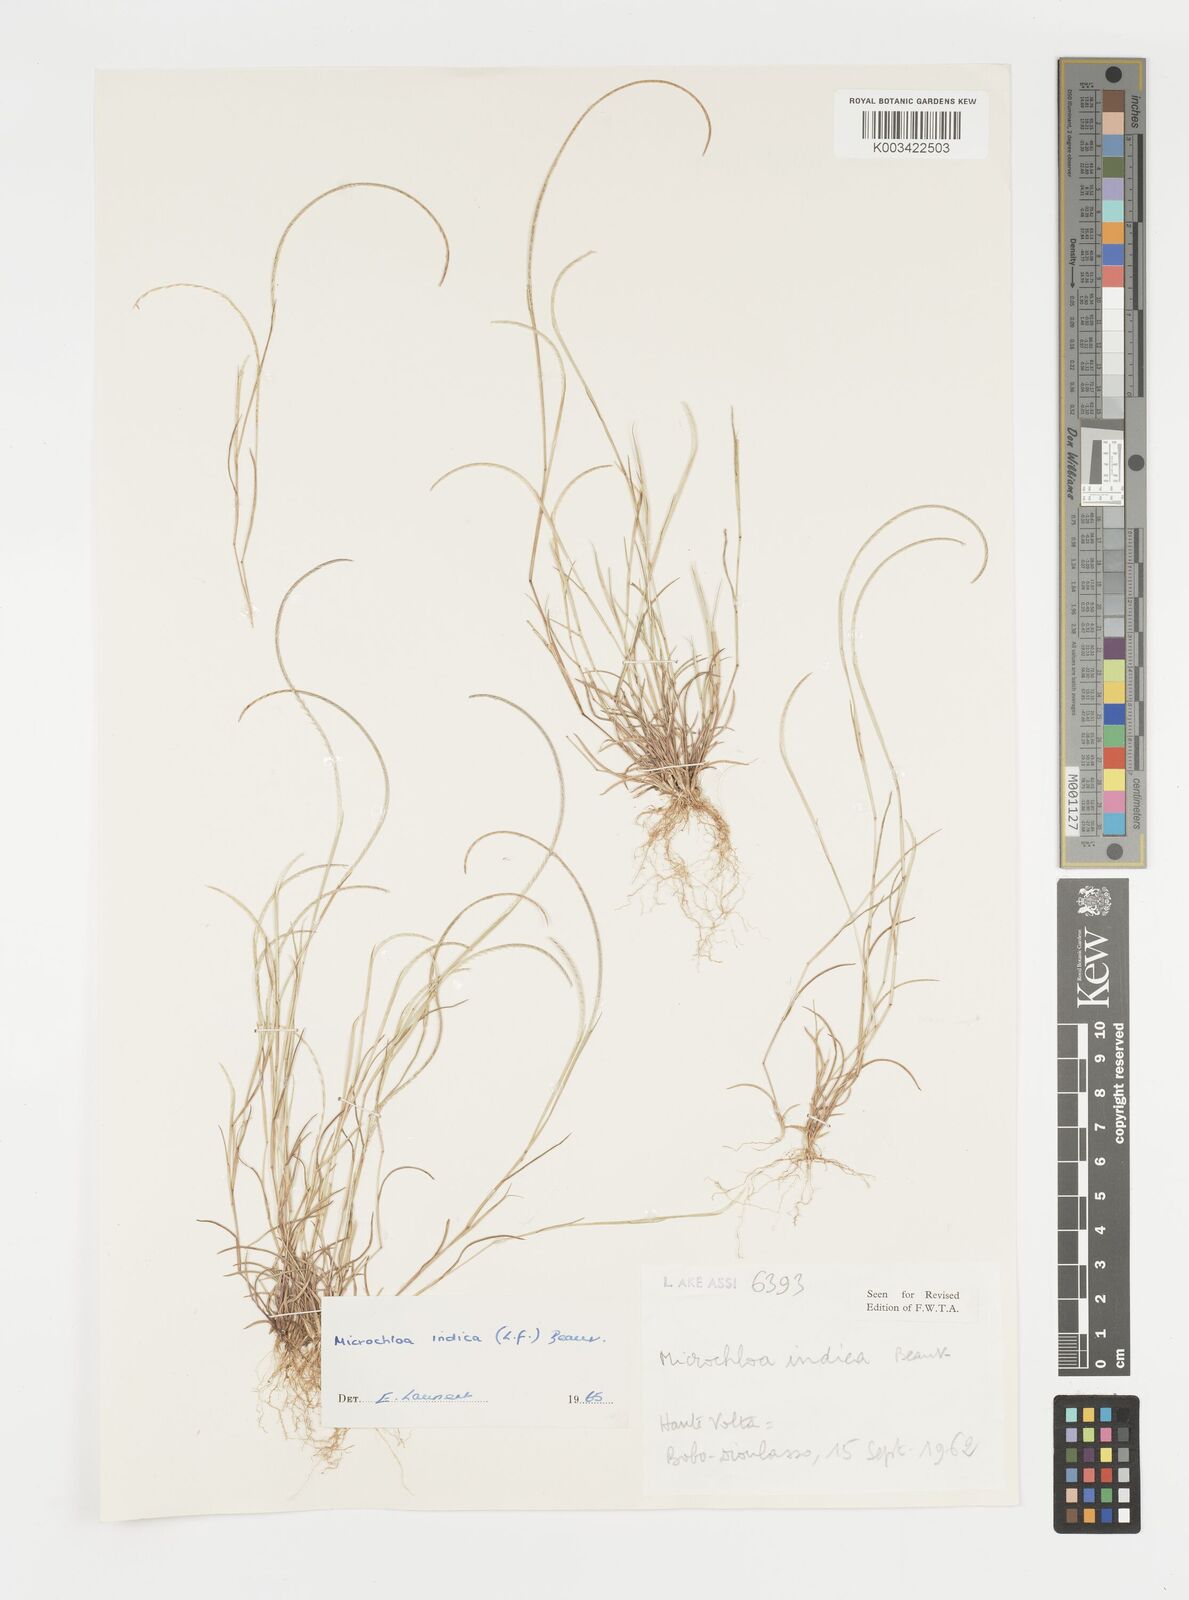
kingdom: Plantae
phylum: Tracheophyta
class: Liliopsida
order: Poales
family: Poaceae
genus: Microchloa
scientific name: Microchloa indica
